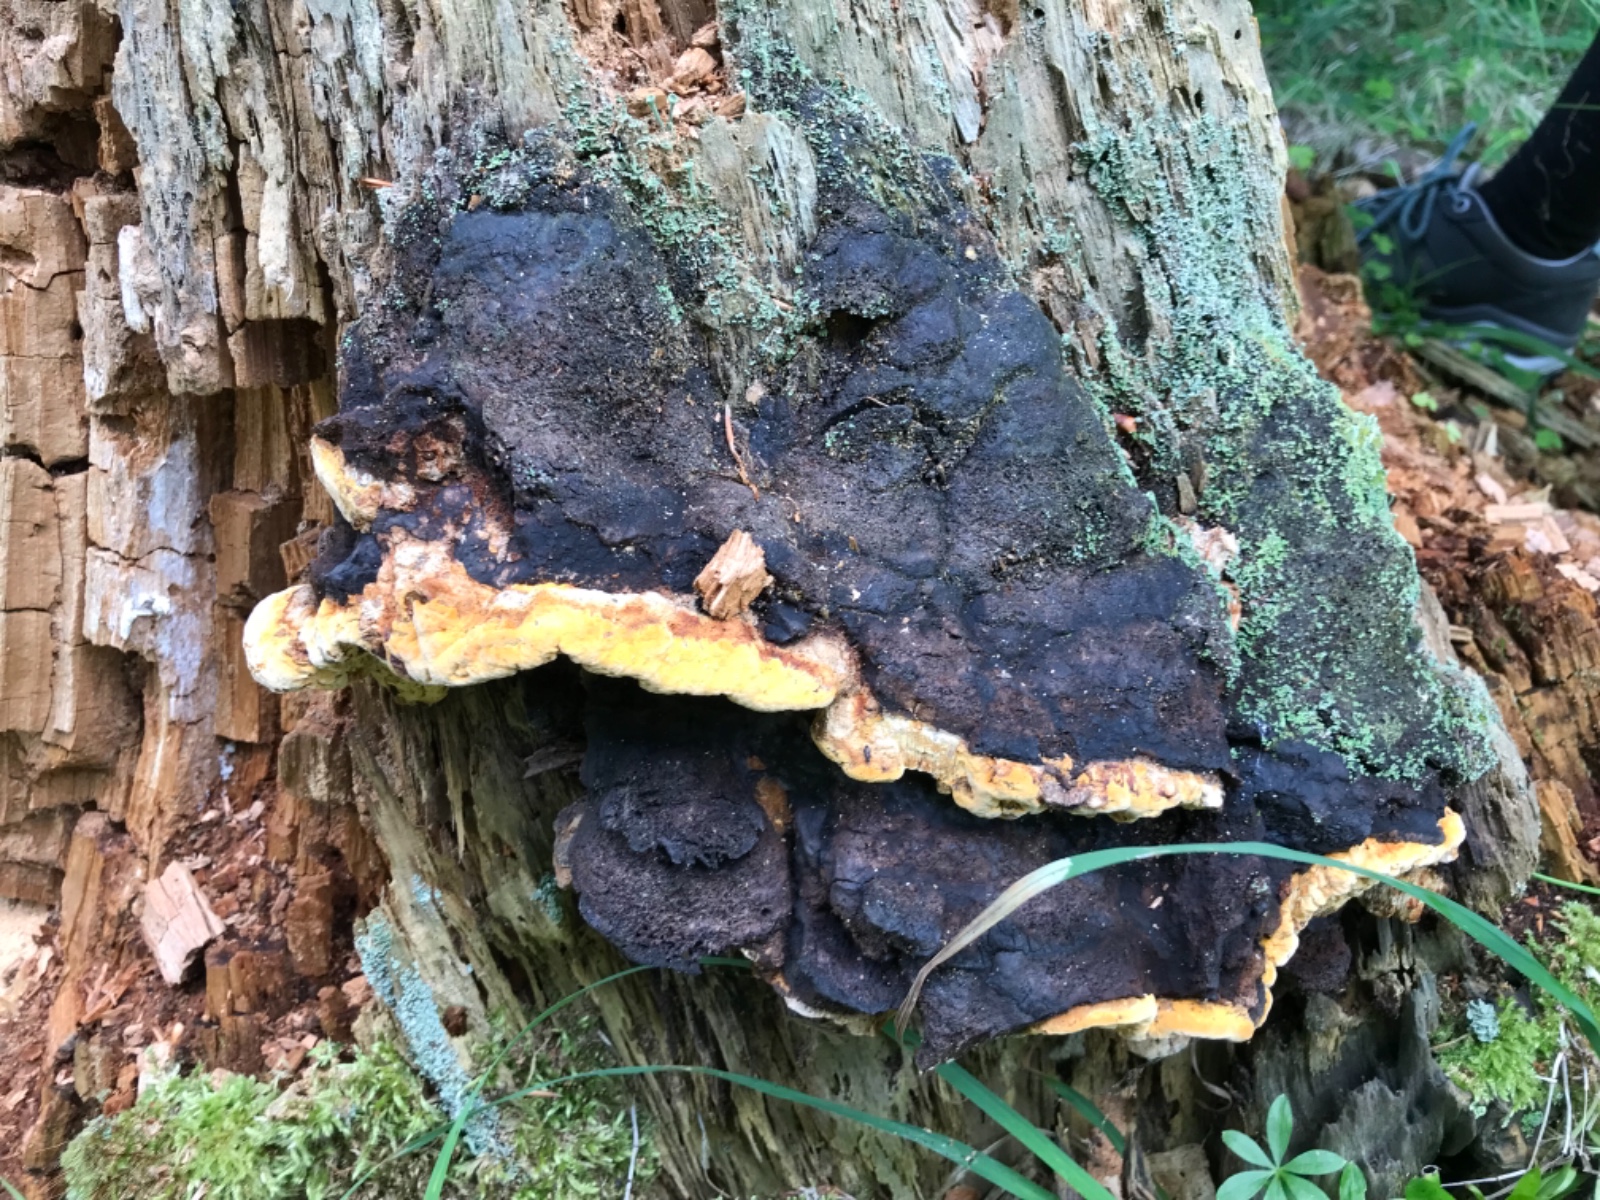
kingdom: Fungi
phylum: Basidiomycota
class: Agaricomycetes
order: Gloeophyllales
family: Gloeophyllaceae
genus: Gloeophyllum
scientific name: Gloeophyllum odoratum
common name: duftende korkhat
